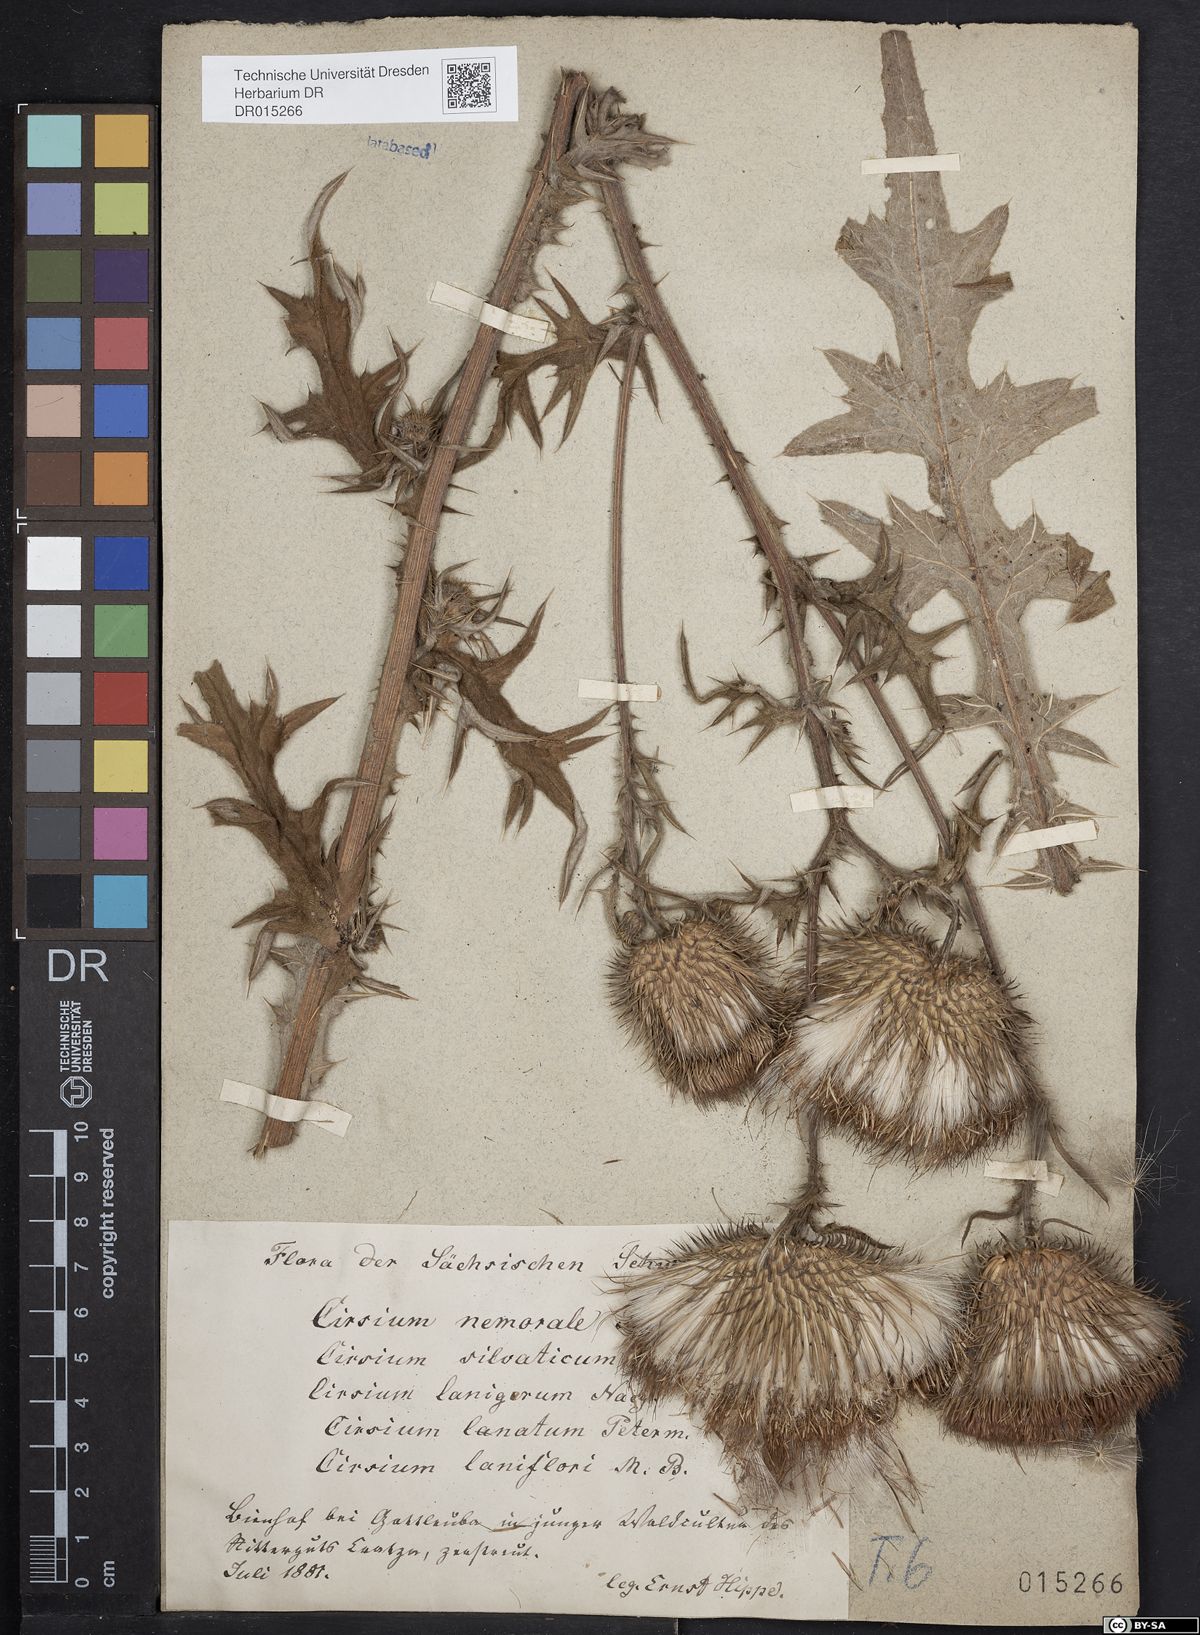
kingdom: Plantae
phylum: Tracheophyta
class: Magnoliopsida
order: Asterales
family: Asteraceae
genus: Cirsium
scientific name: Cirsium vulgare
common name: Bull thistle
